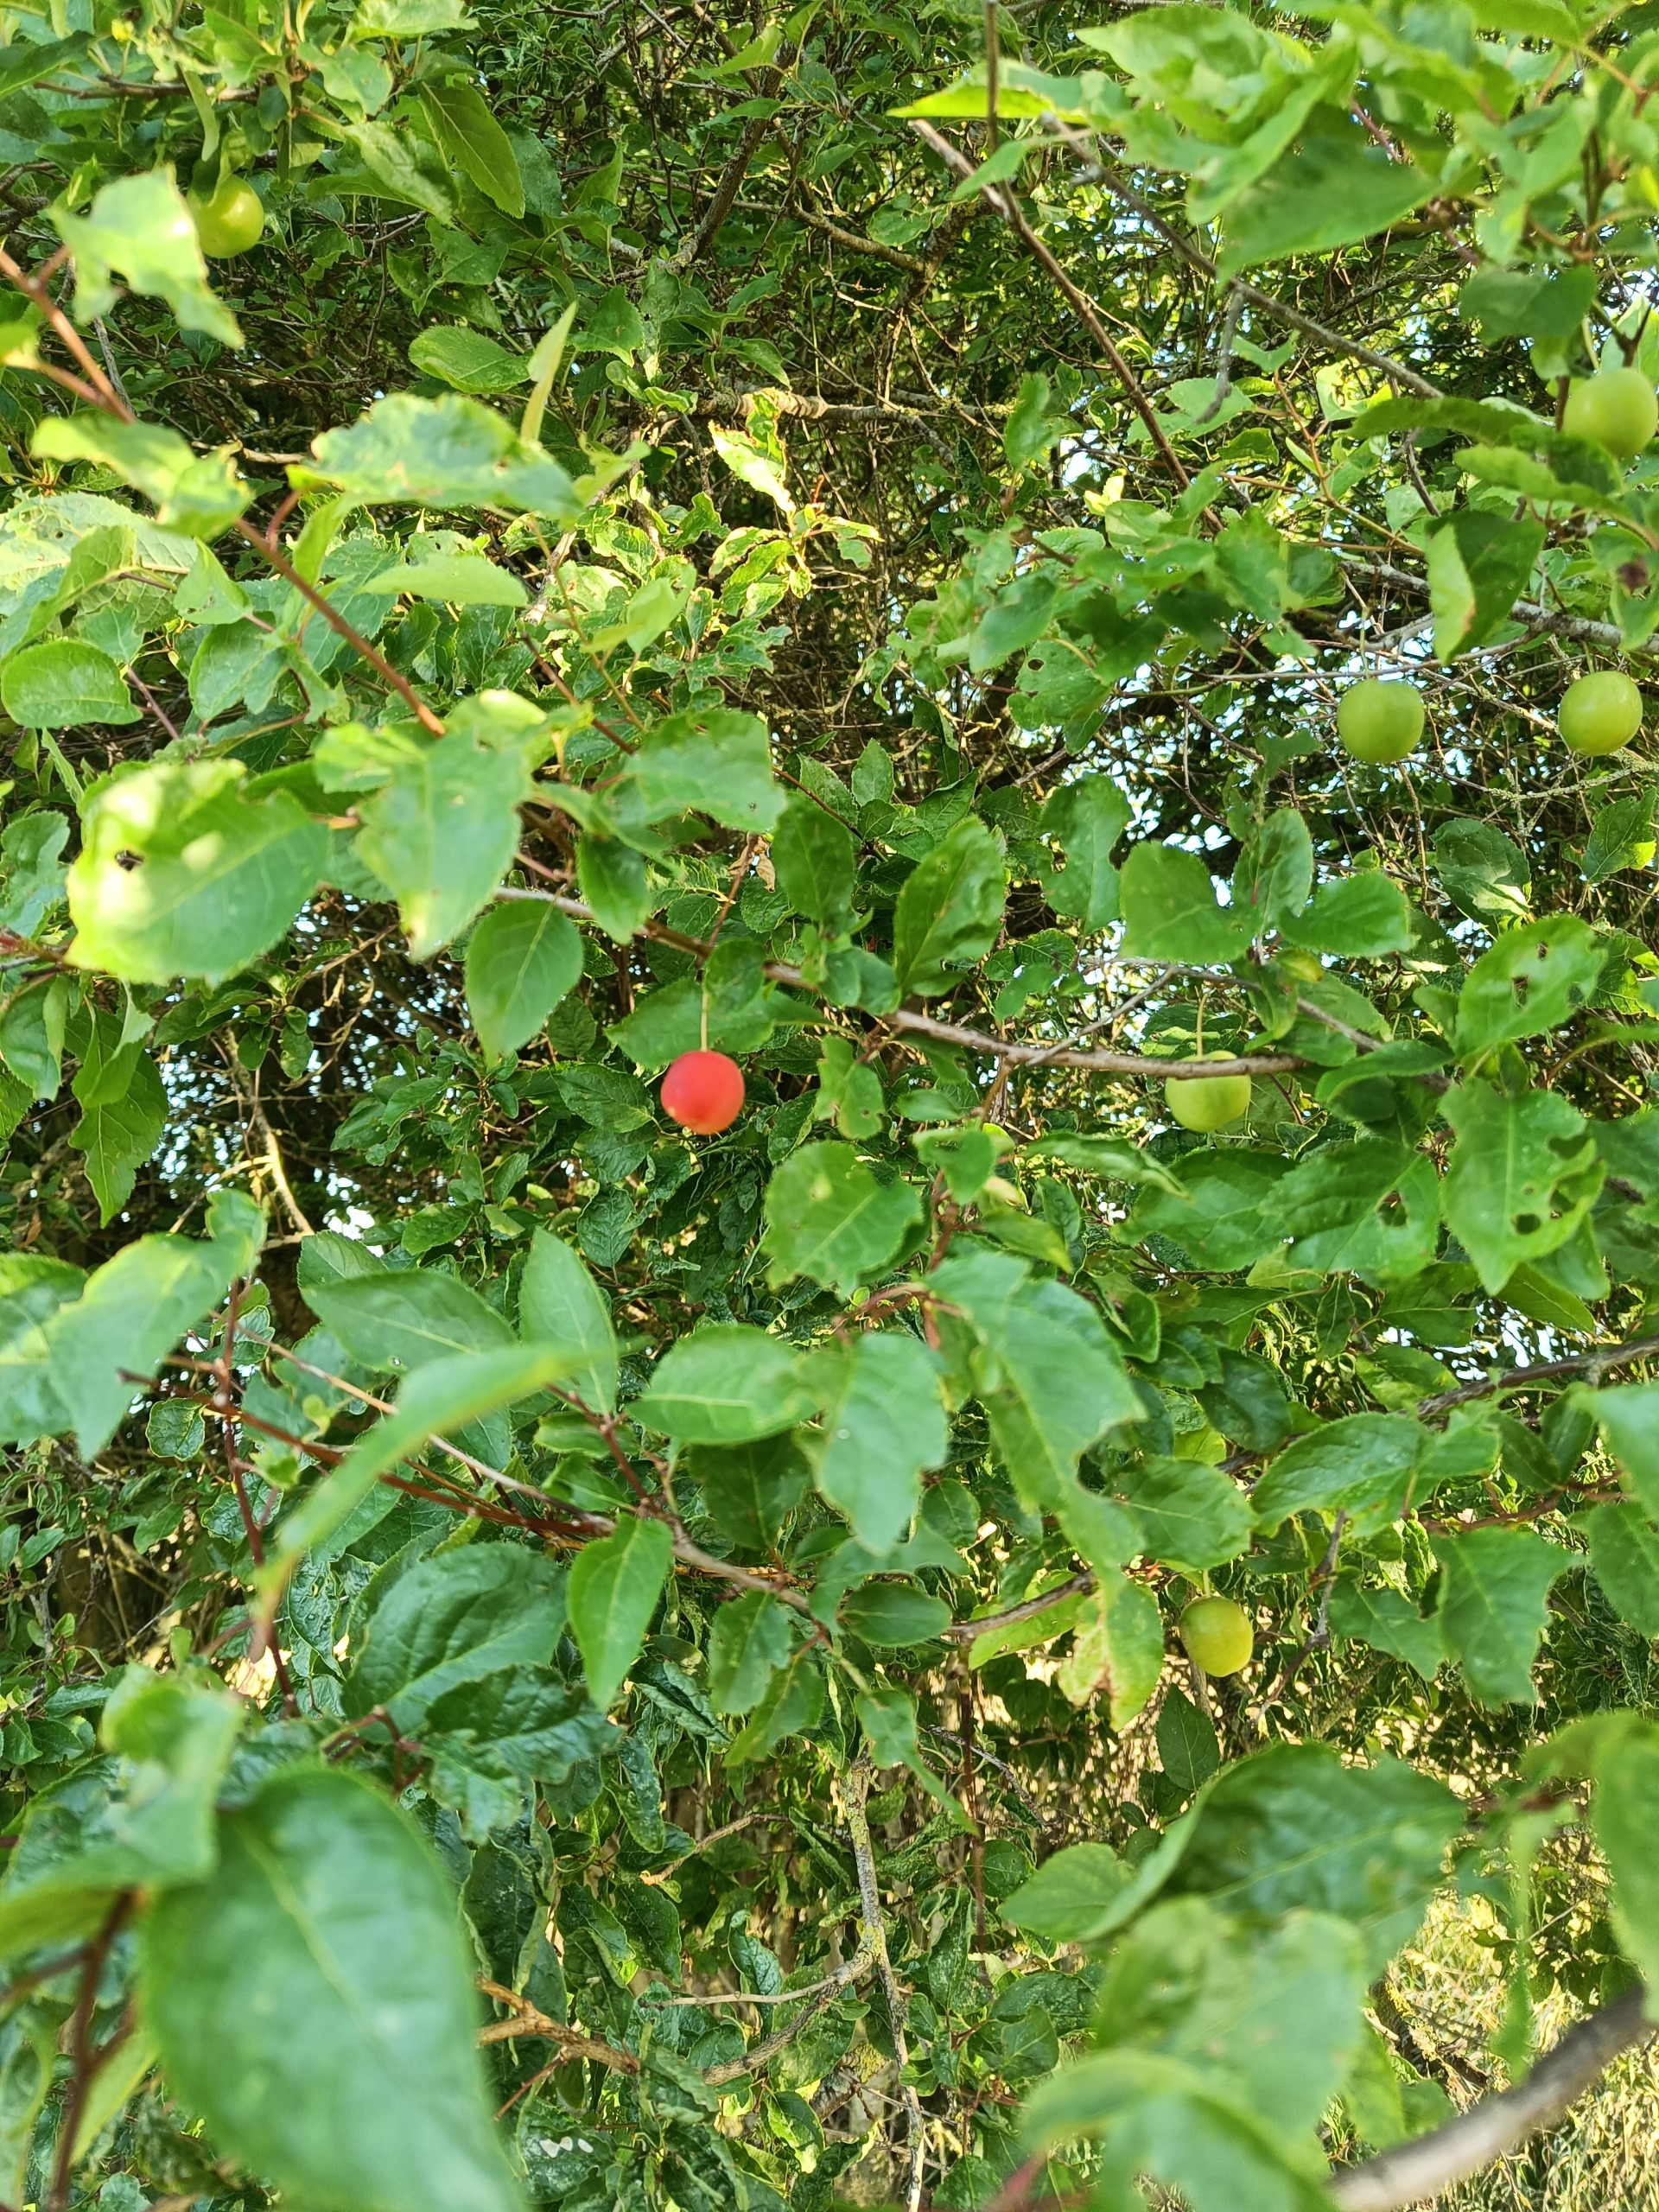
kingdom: Plantae
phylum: Tracheophyta
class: Magnoliopsida
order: Rosales
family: Rosaceae
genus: Prunus
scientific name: Prunus cerasifera
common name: Mirabel
